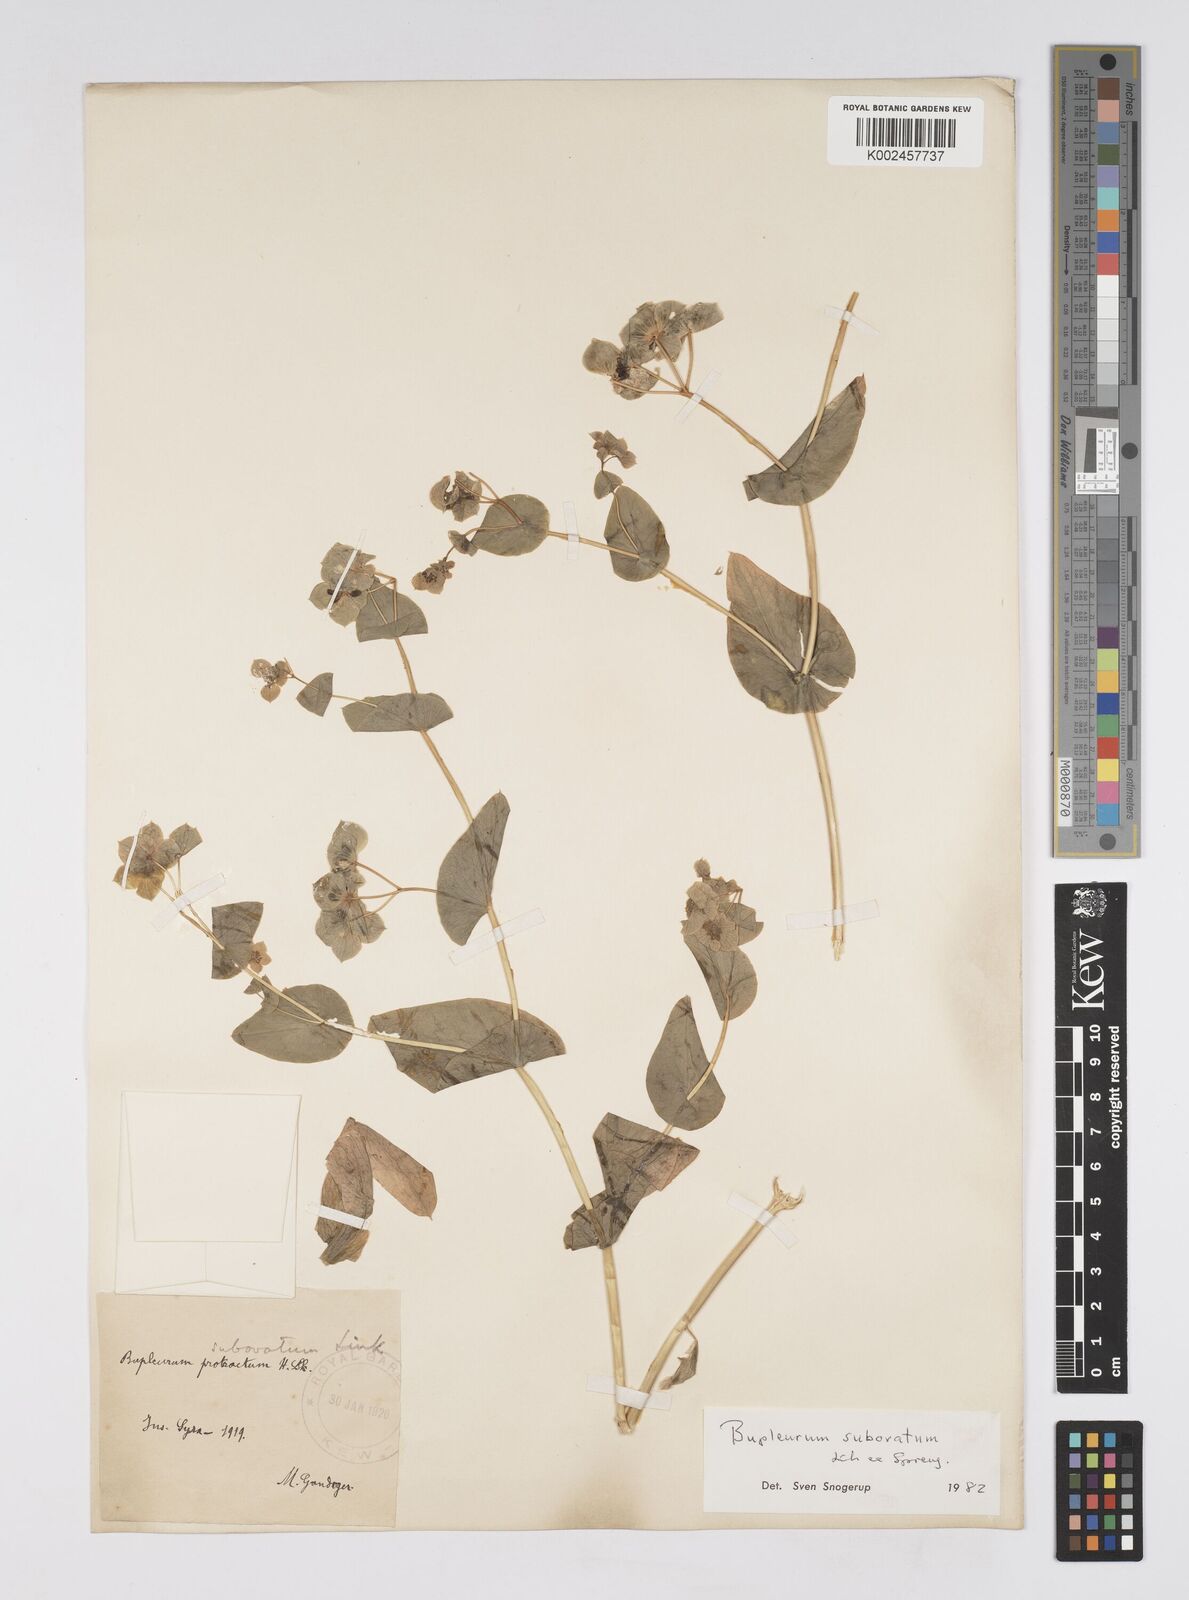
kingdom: Plantae
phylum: Tracheophyta
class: Magnoliopsida
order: Apiales
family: Apiaceae
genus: Bupleurum
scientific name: Bupleurum subovatum
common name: False thorow-wax
